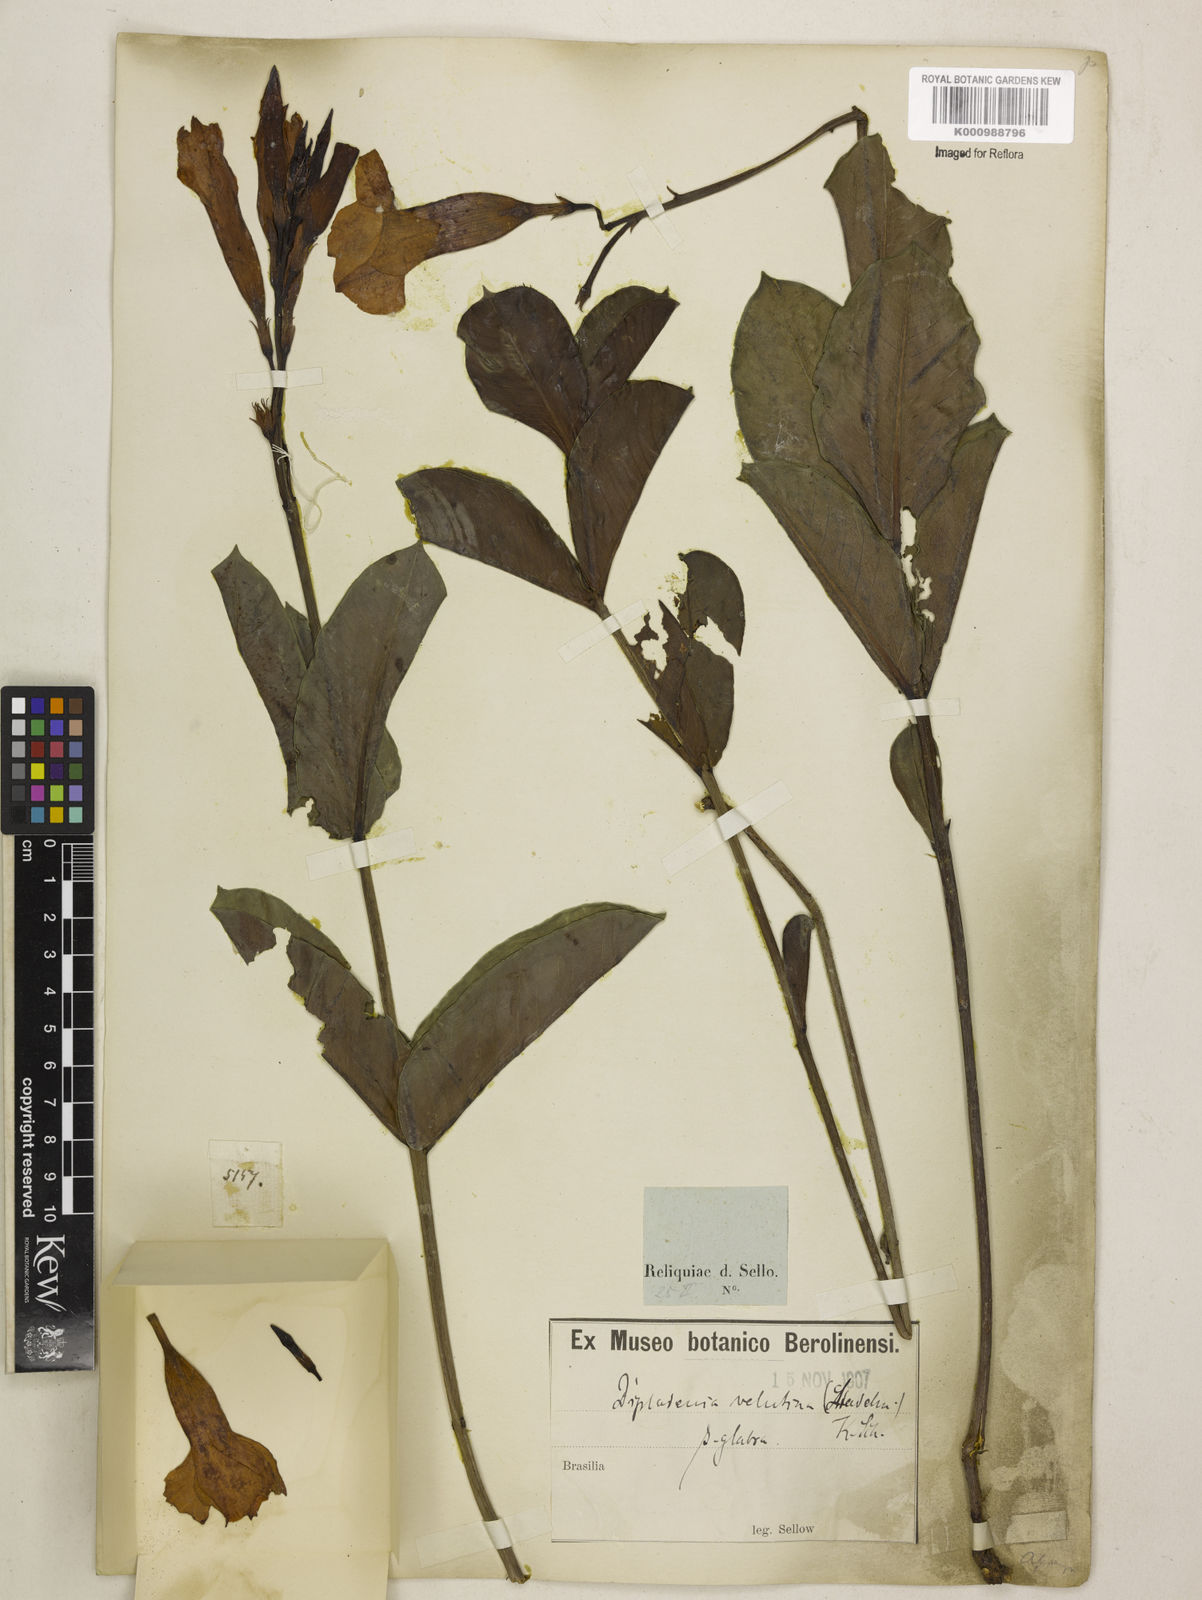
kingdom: Plantae
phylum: Tracheophyta
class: Magnoliopsida
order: Gentianales
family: Apocynaceae
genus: Mandevilla
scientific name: Mandevilla pohliana
